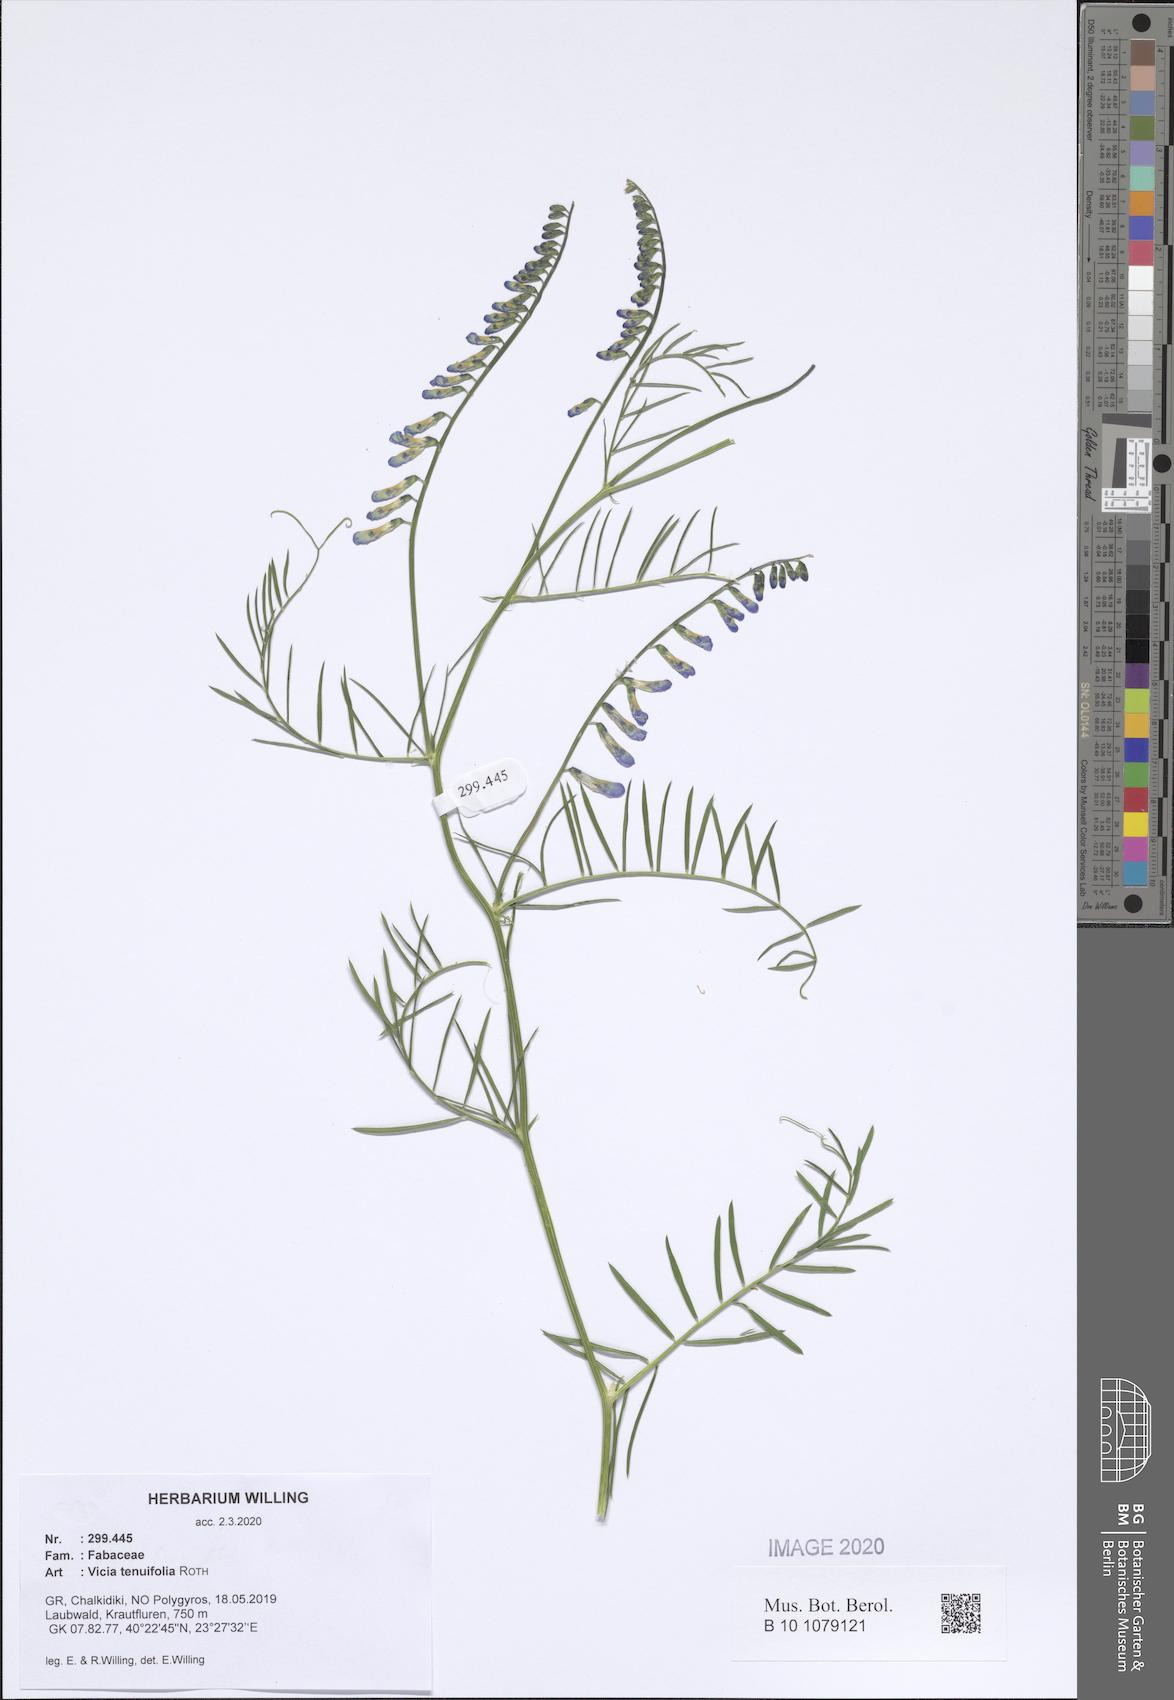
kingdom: Plantae
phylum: Tracheophyta
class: Magnoliopsida
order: Fabales
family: Fabaceae
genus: Vicia
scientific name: Vicia tenuifolia
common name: Fine-leaved vetch
